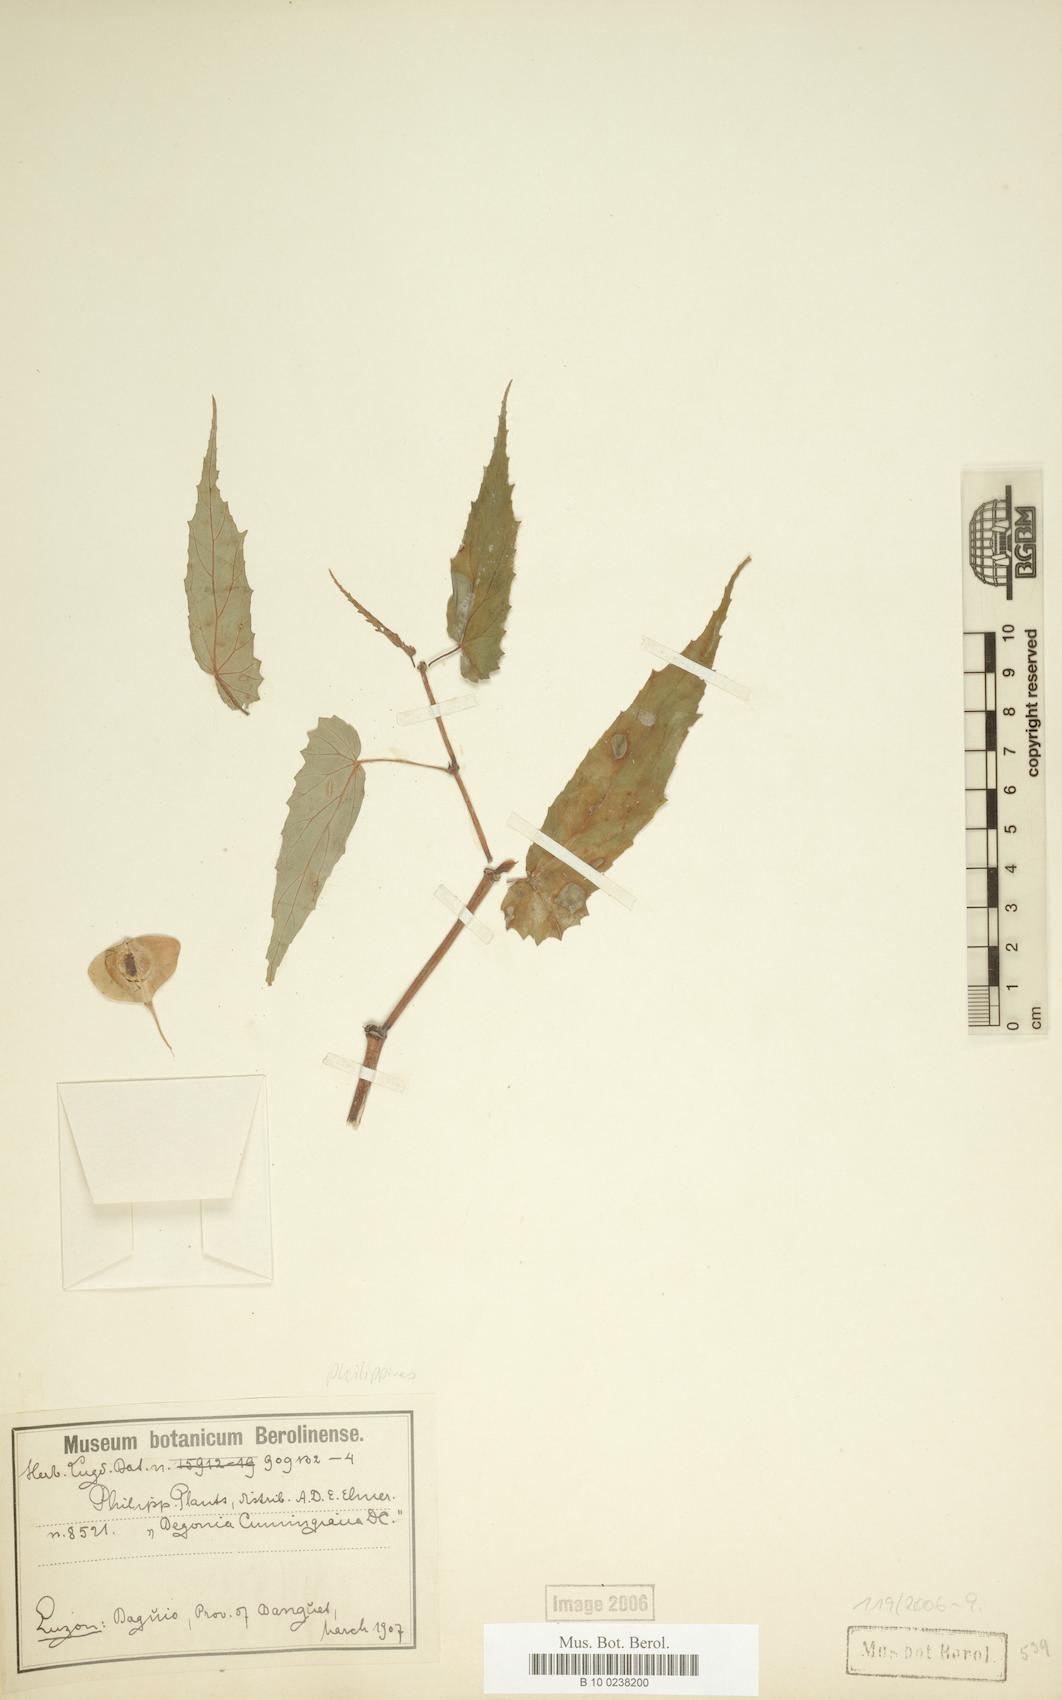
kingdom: Plantae
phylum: Tracheophyta
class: Magnoliopsida
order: Cucurbitales
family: Begoniaceae
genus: Begonia
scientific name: Begonia cumingiana
